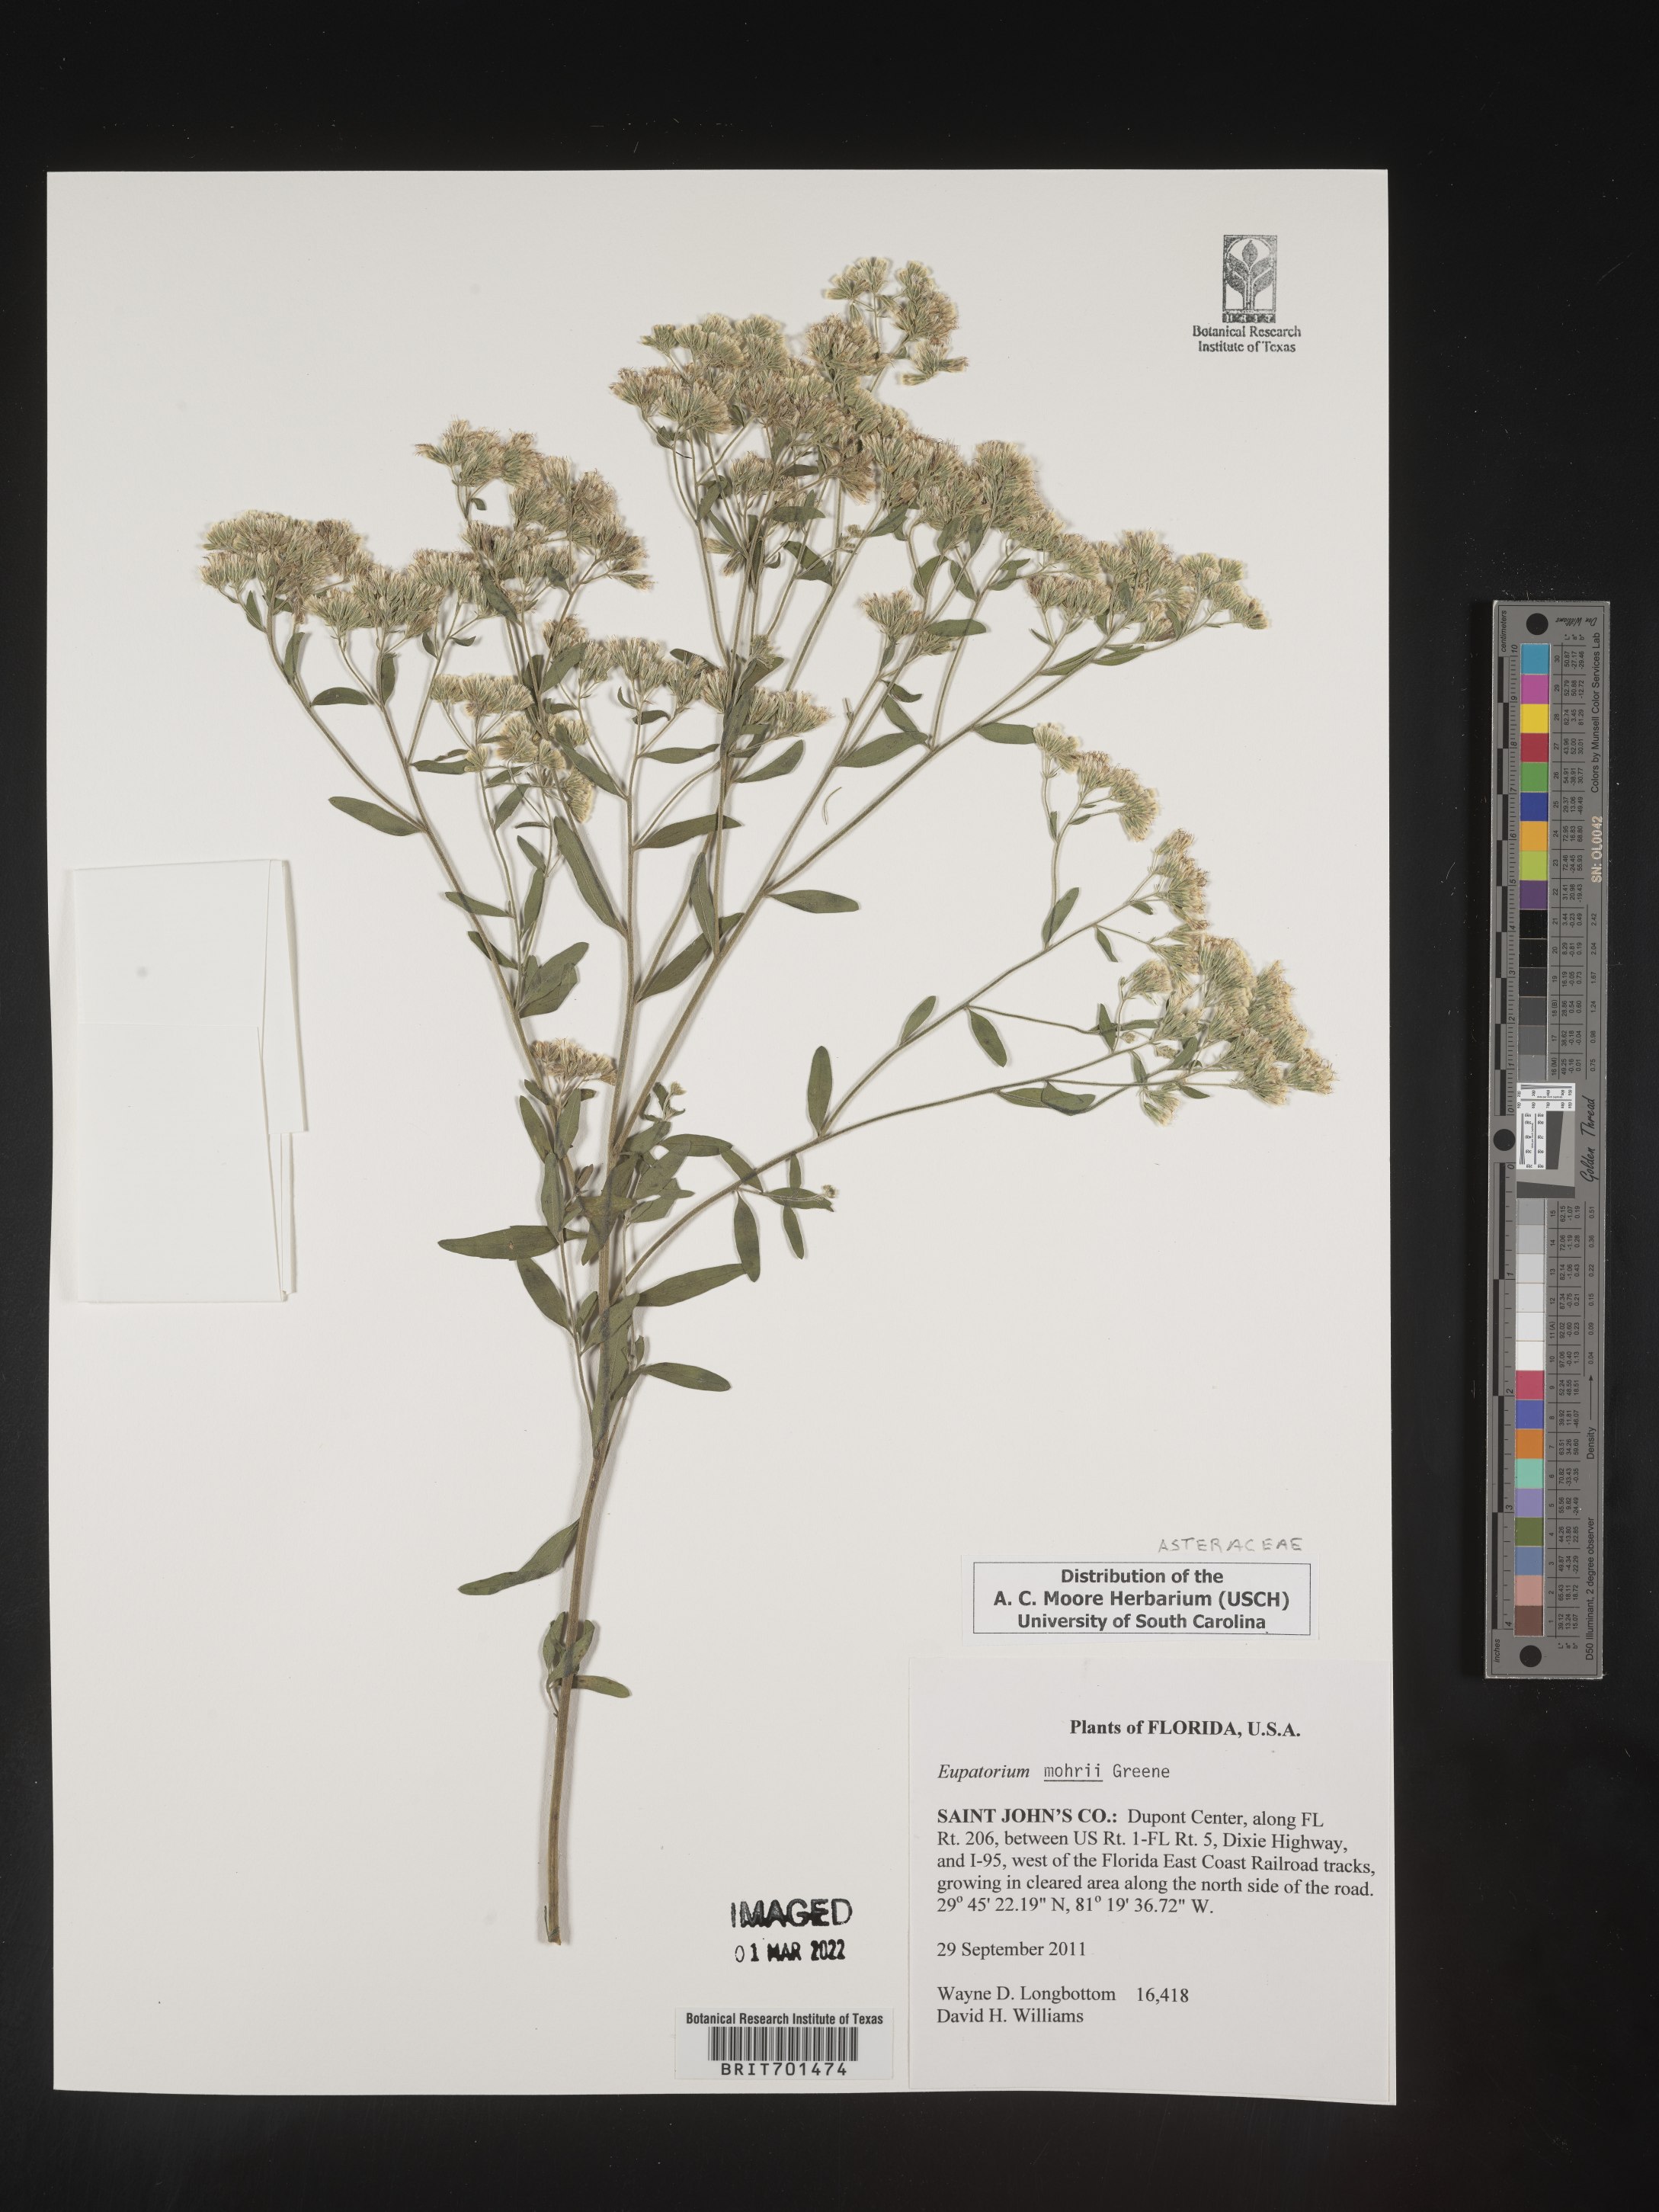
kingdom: Plantae
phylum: Tracheophyta
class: Magnoliopsida
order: Asterales
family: Asteraceae
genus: Eupatorium
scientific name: Eupatorium mohrii
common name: Mohr's thoroughwort
